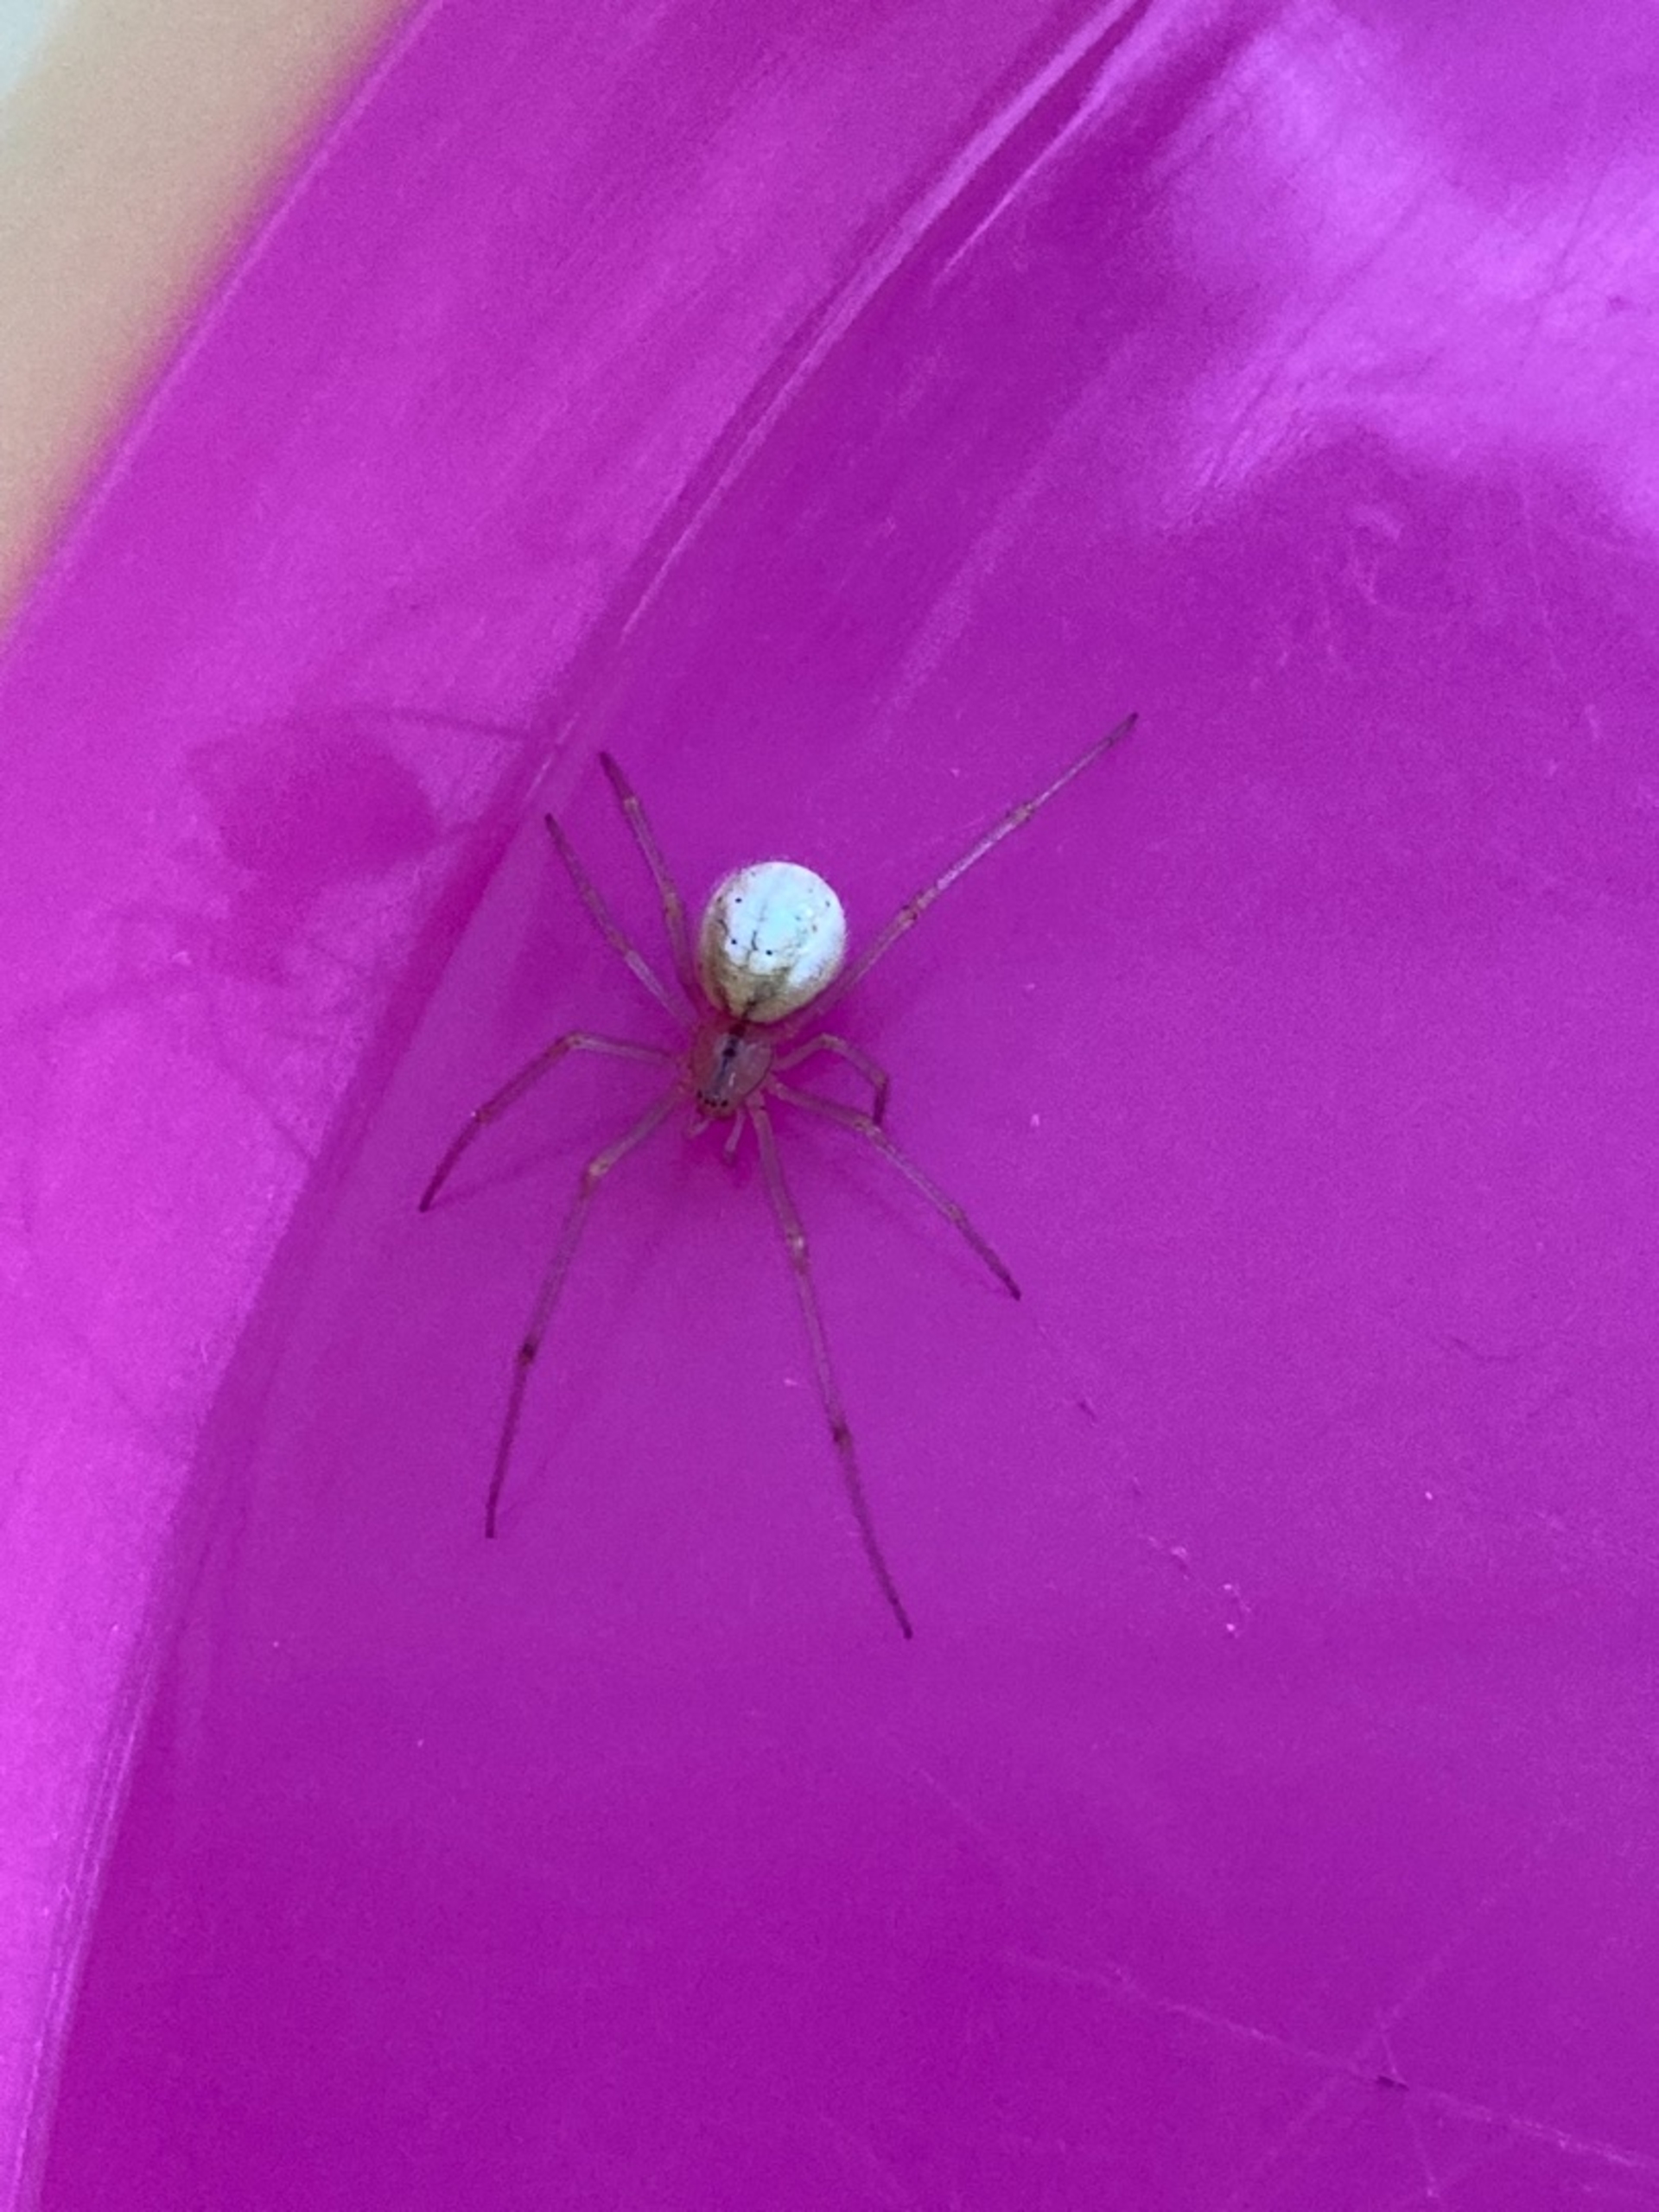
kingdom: Animalia
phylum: Arthropoda
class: Arachnida
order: Araneae
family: Theridiidae
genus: Enoplognatha
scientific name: Enoplognatha
